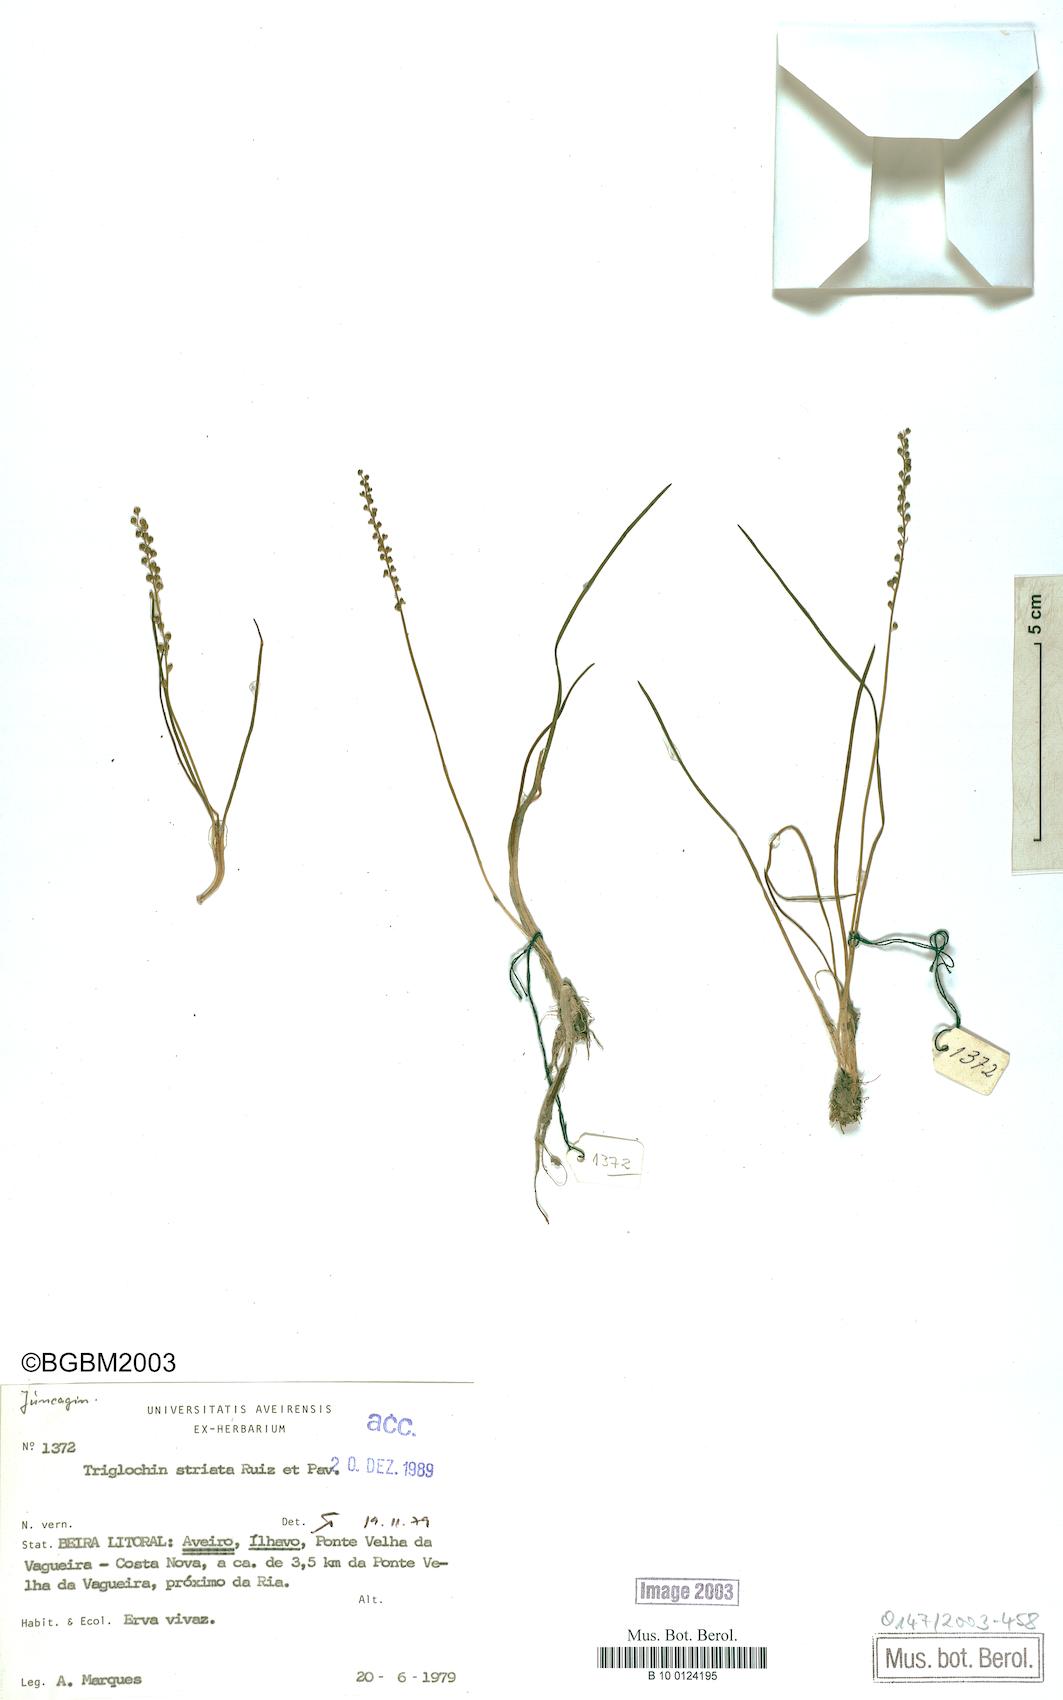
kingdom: Plantae
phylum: Tracheophyta
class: Liliopsida
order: Alismatales
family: Juncaginaceae
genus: Triglochin
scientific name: Triglochin striata
